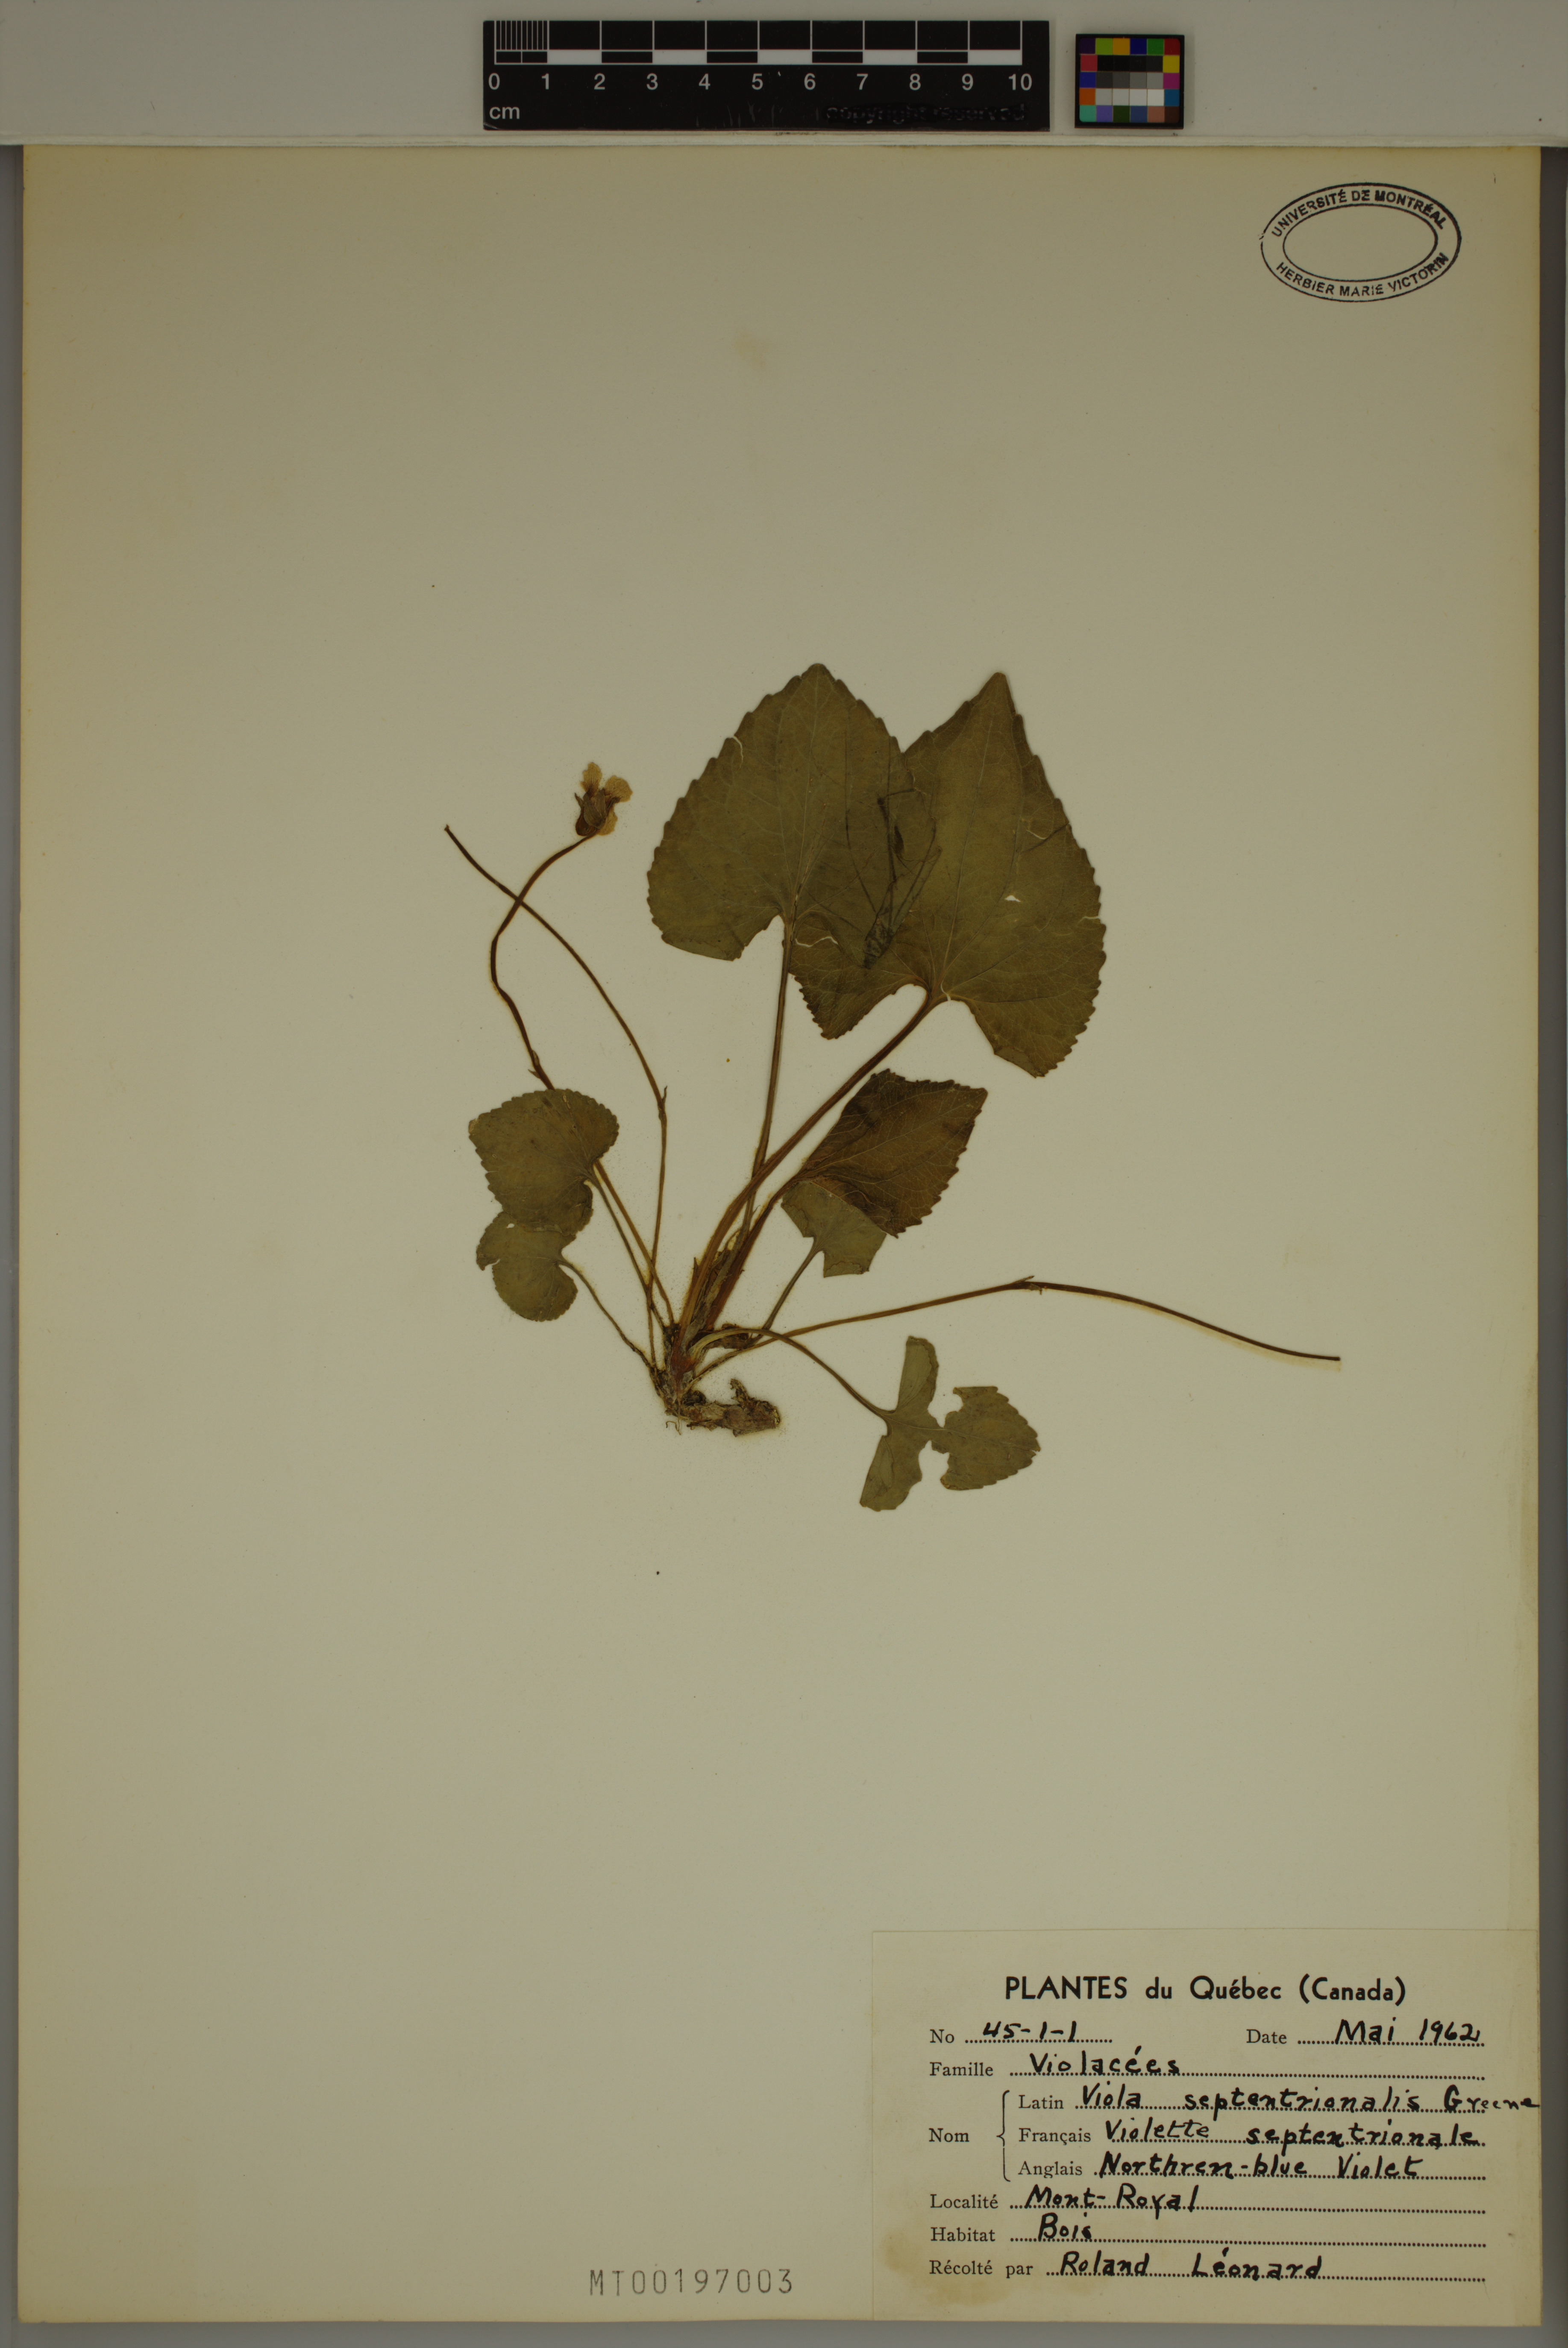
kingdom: Plantae
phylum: Tracheophyta
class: Magnoliopsida
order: Malpighiales
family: Violaceae
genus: Viola
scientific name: Viola sororia
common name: Dooryard violet
